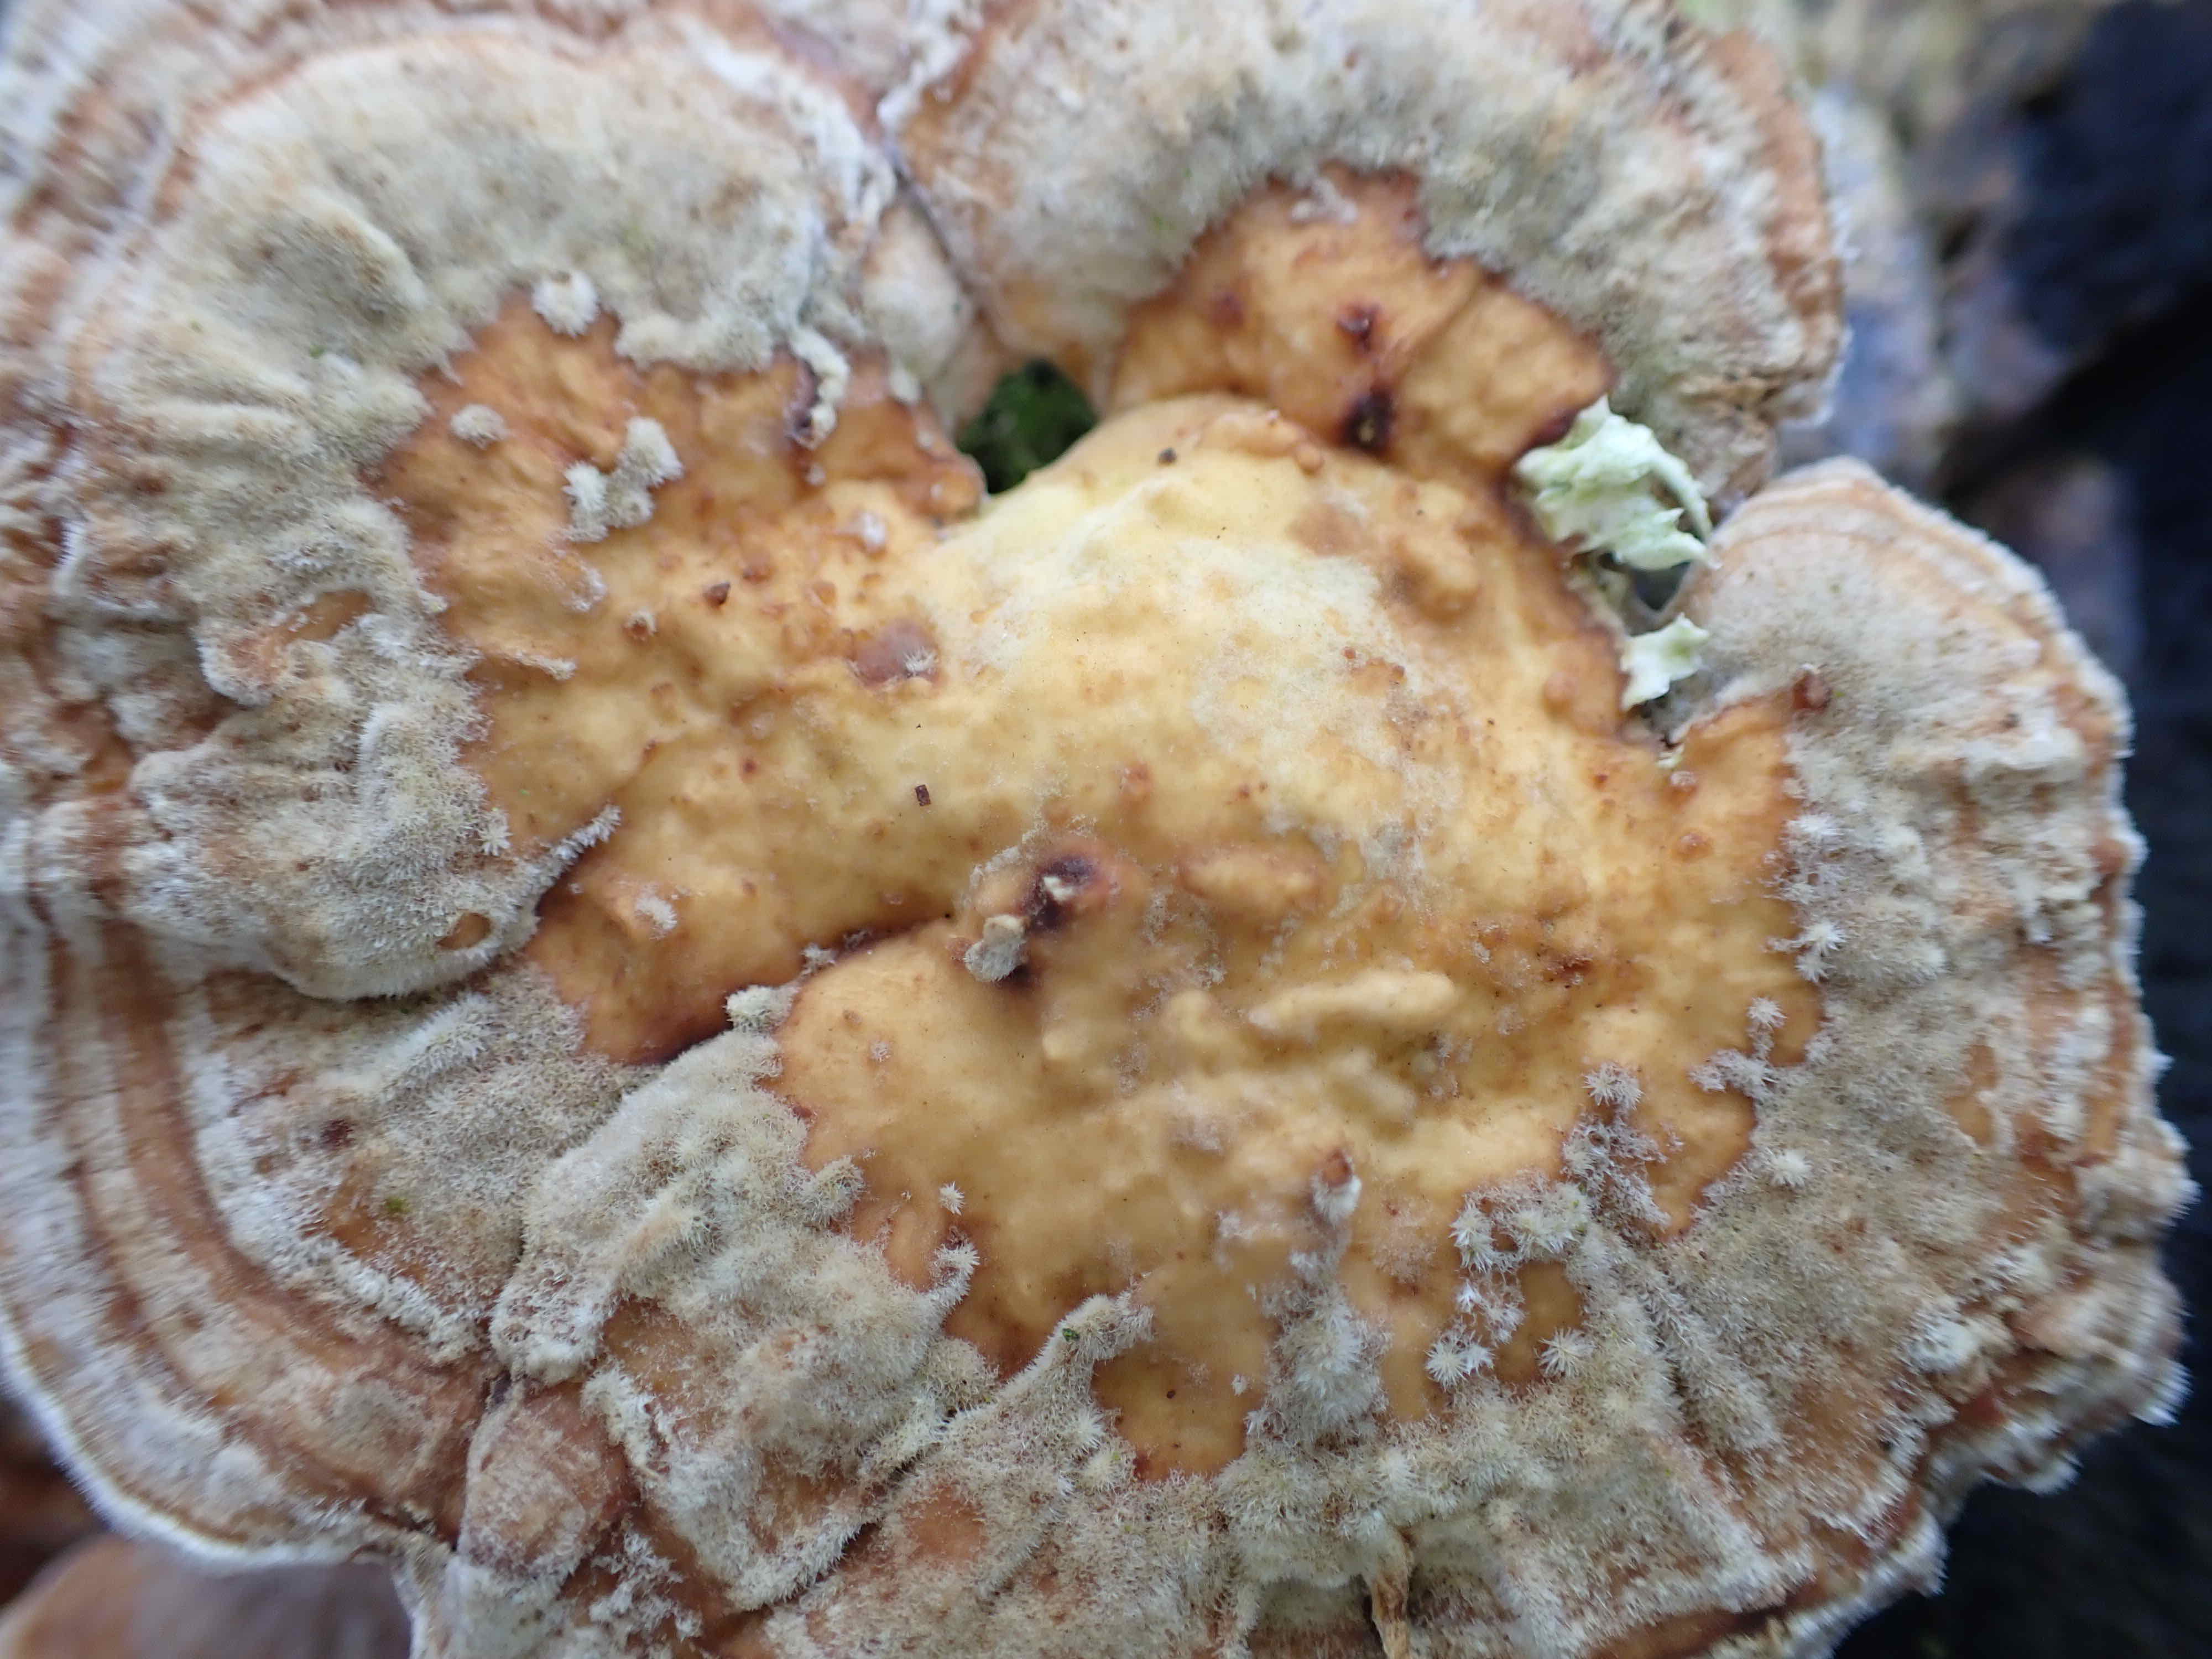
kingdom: Fungi
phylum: Basidiomycota
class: Agaricomycetes
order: Polyporales
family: Polyporaceae
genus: Trametes
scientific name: Trametes
